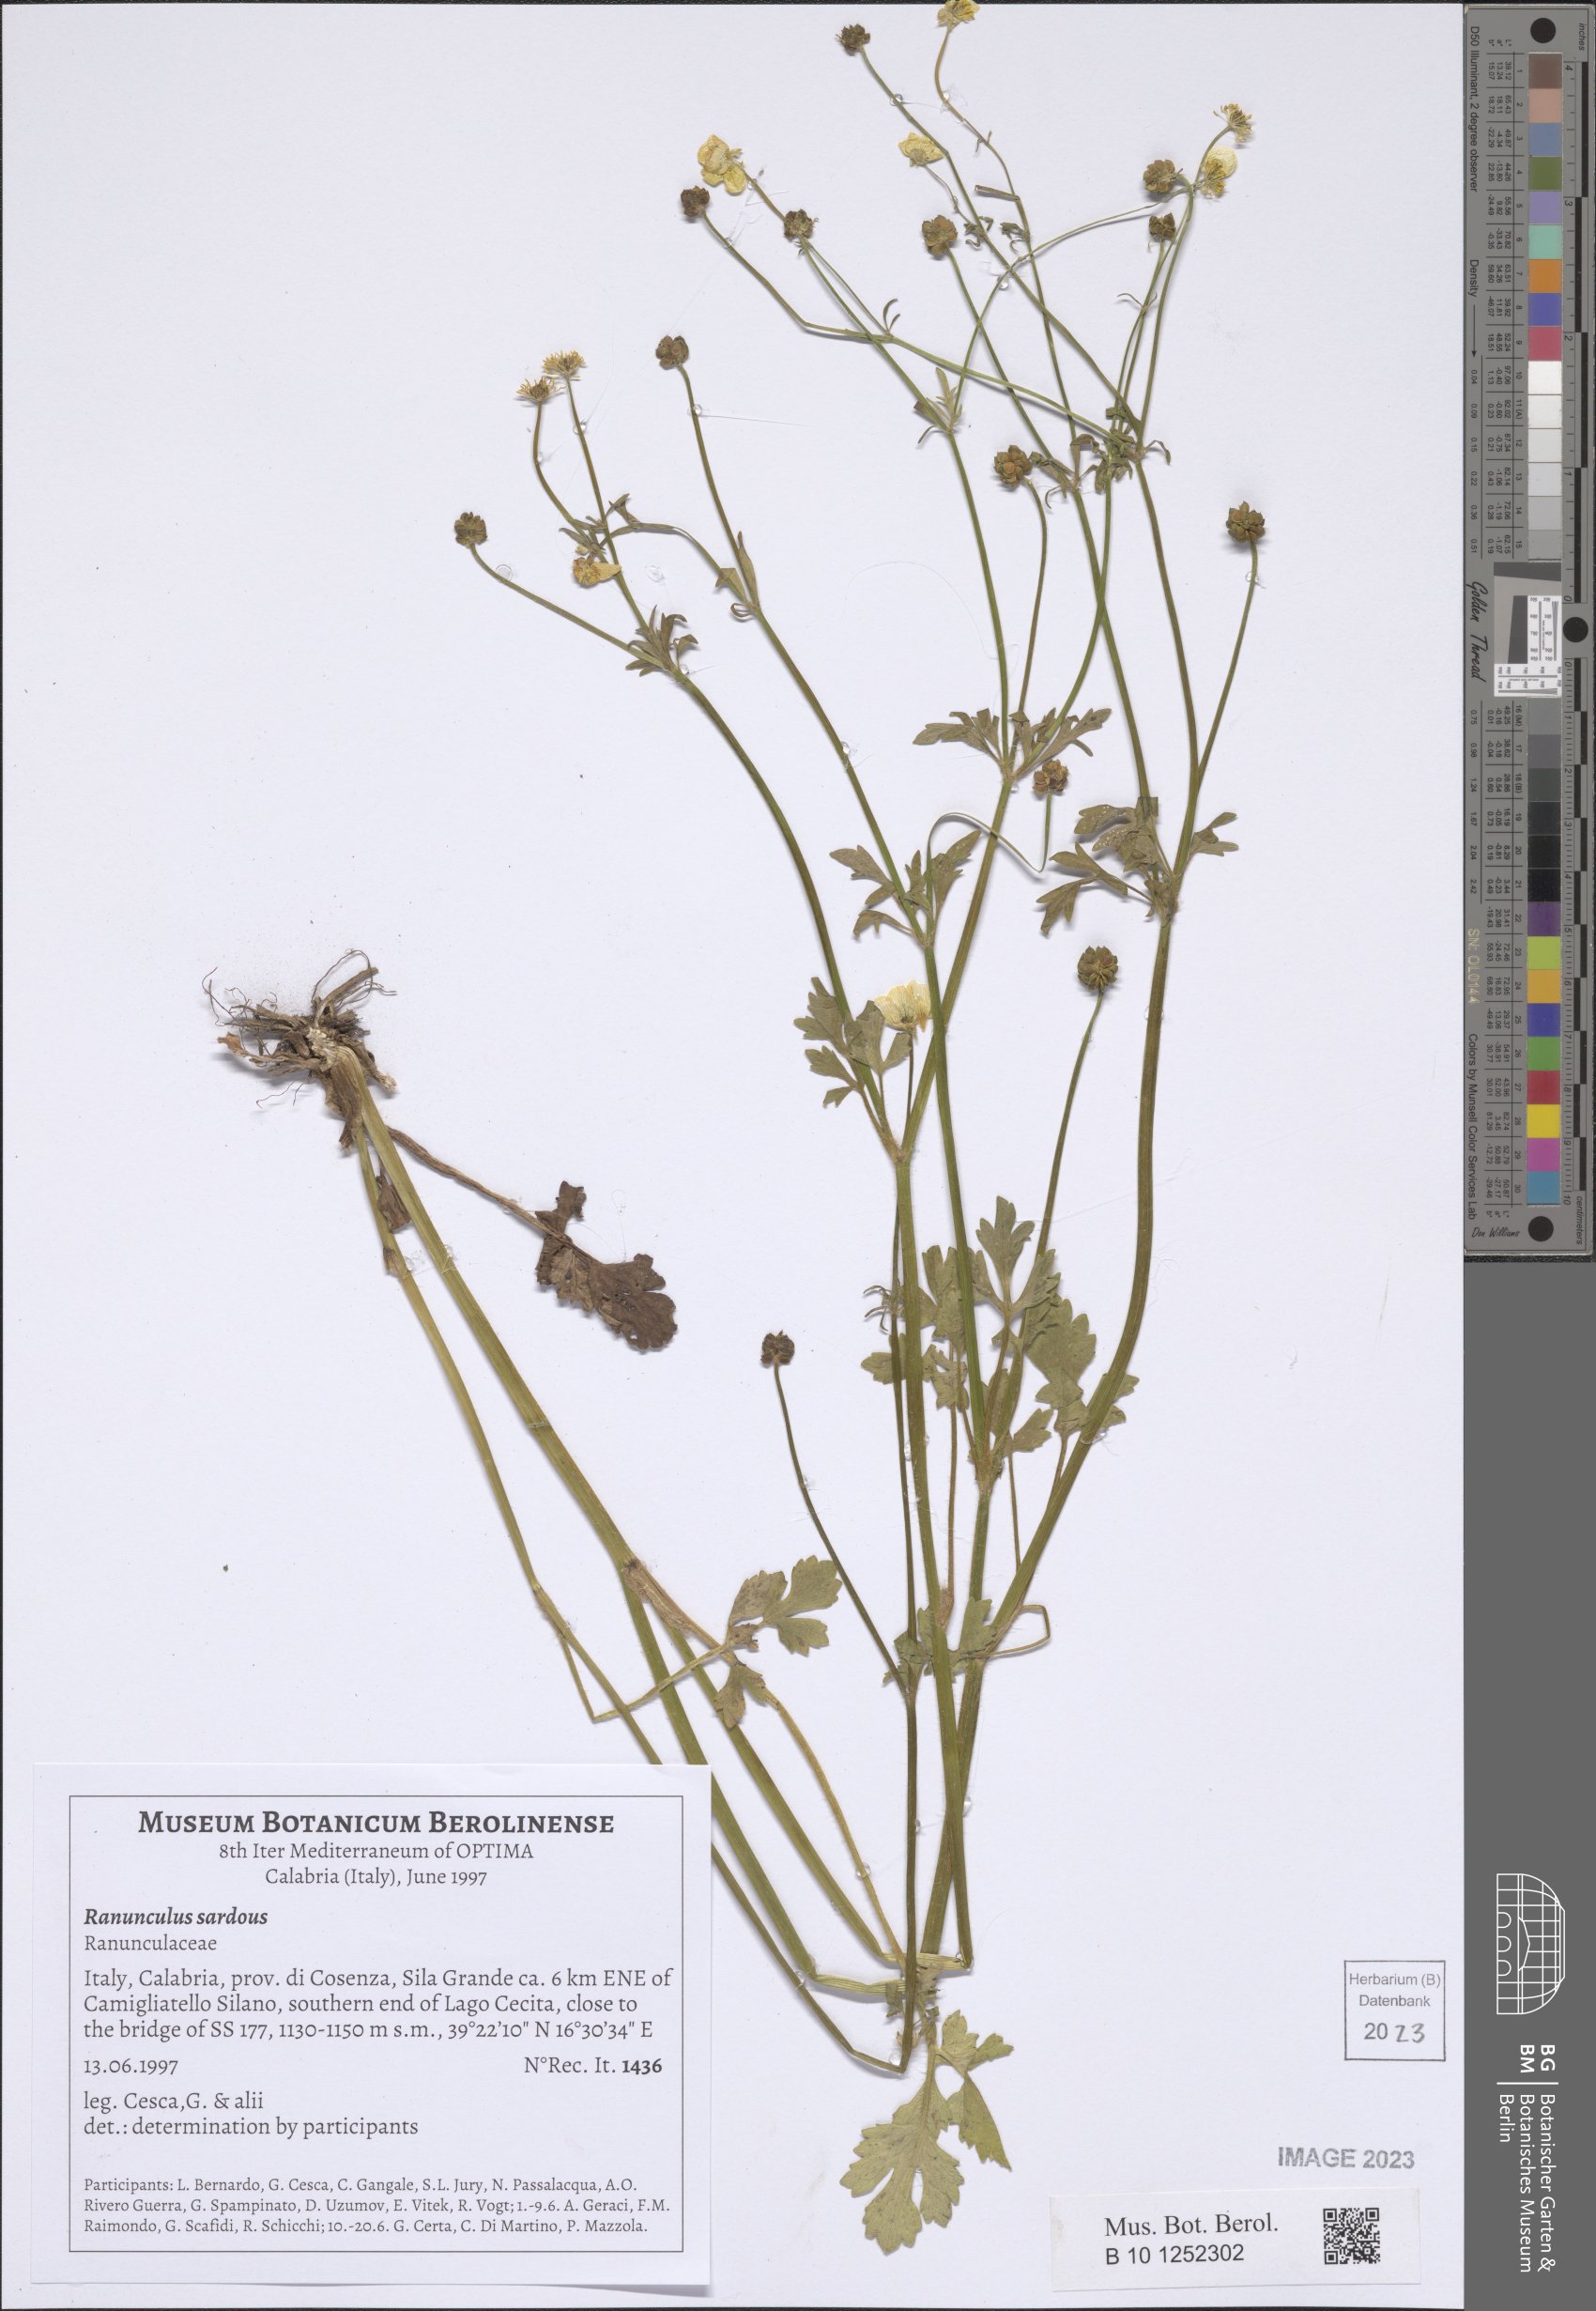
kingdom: Plantae
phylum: Tracheophyta
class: Magnoliopsida
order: Ranunculales
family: Ranunculaceae
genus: Ranunculus
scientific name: Ranunculus sardous
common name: Hairy buttercup
